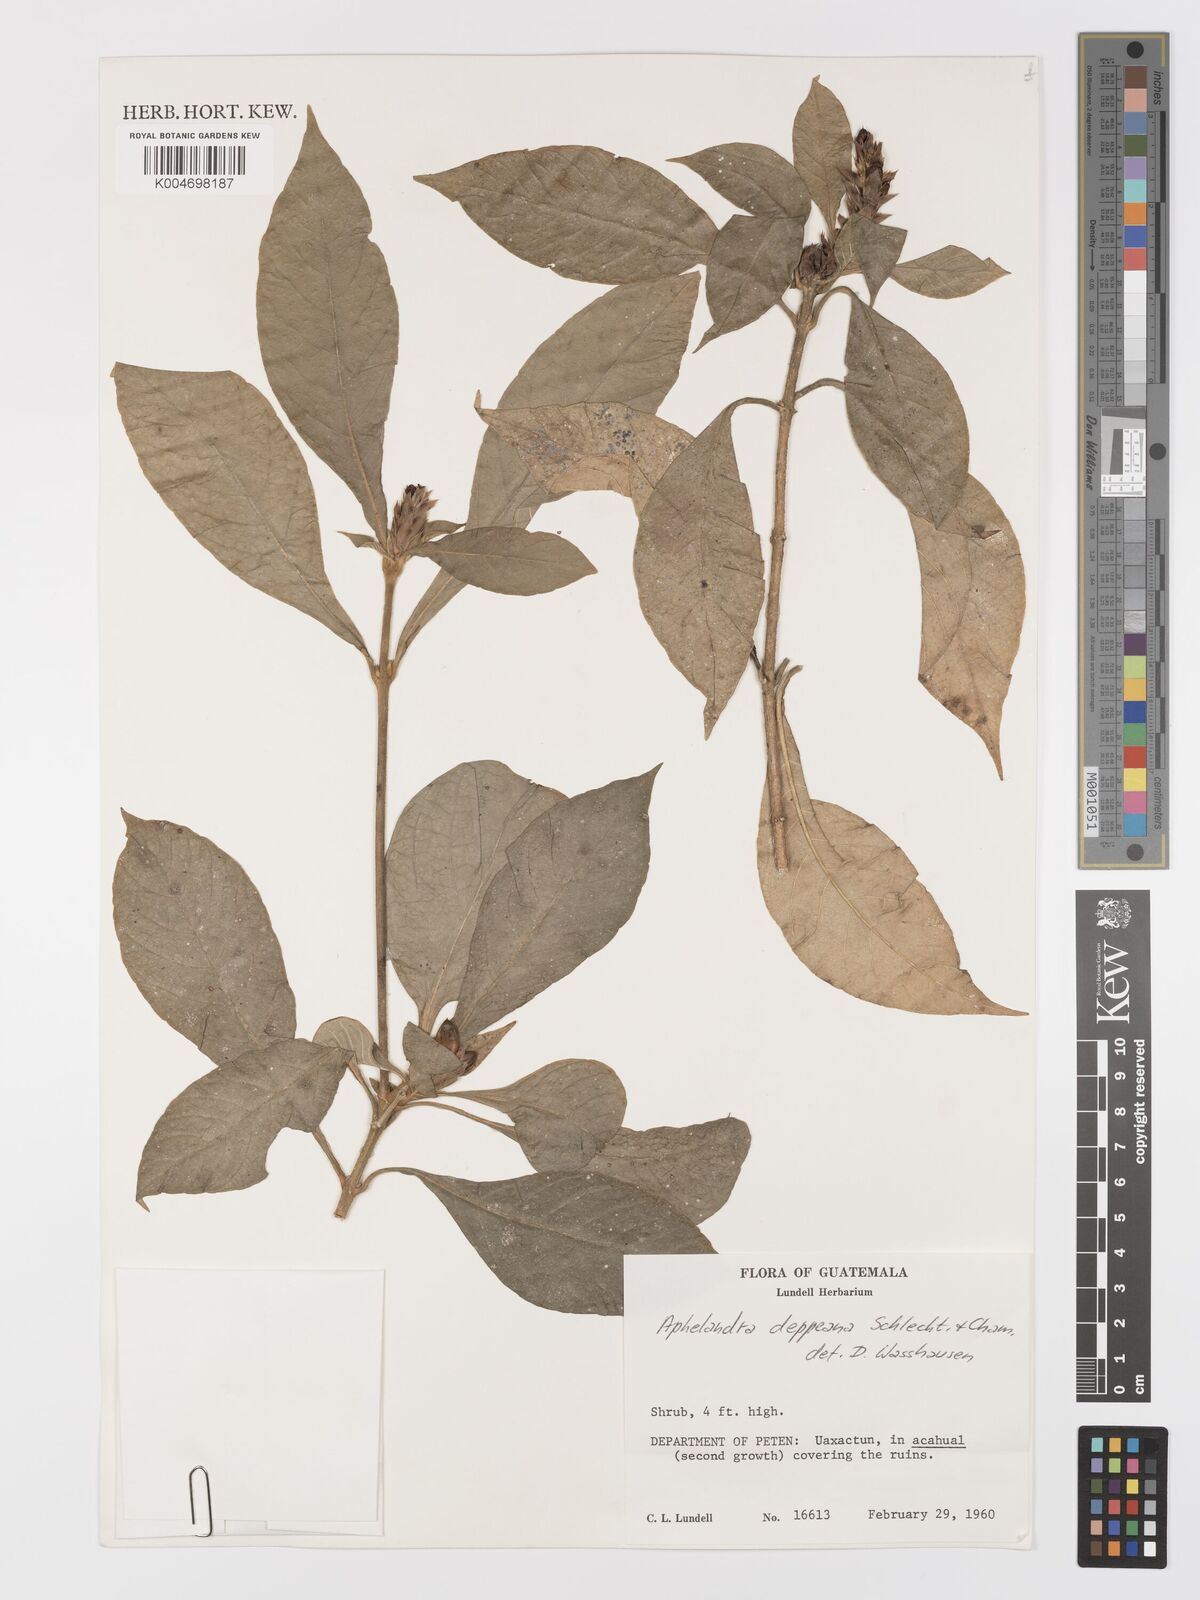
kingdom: Plantae
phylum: Tracheophyta
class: Magnoliopsida
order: Lamiales
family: Acanthaceae
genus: Aphelandra
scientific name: Aphelandra scabra
